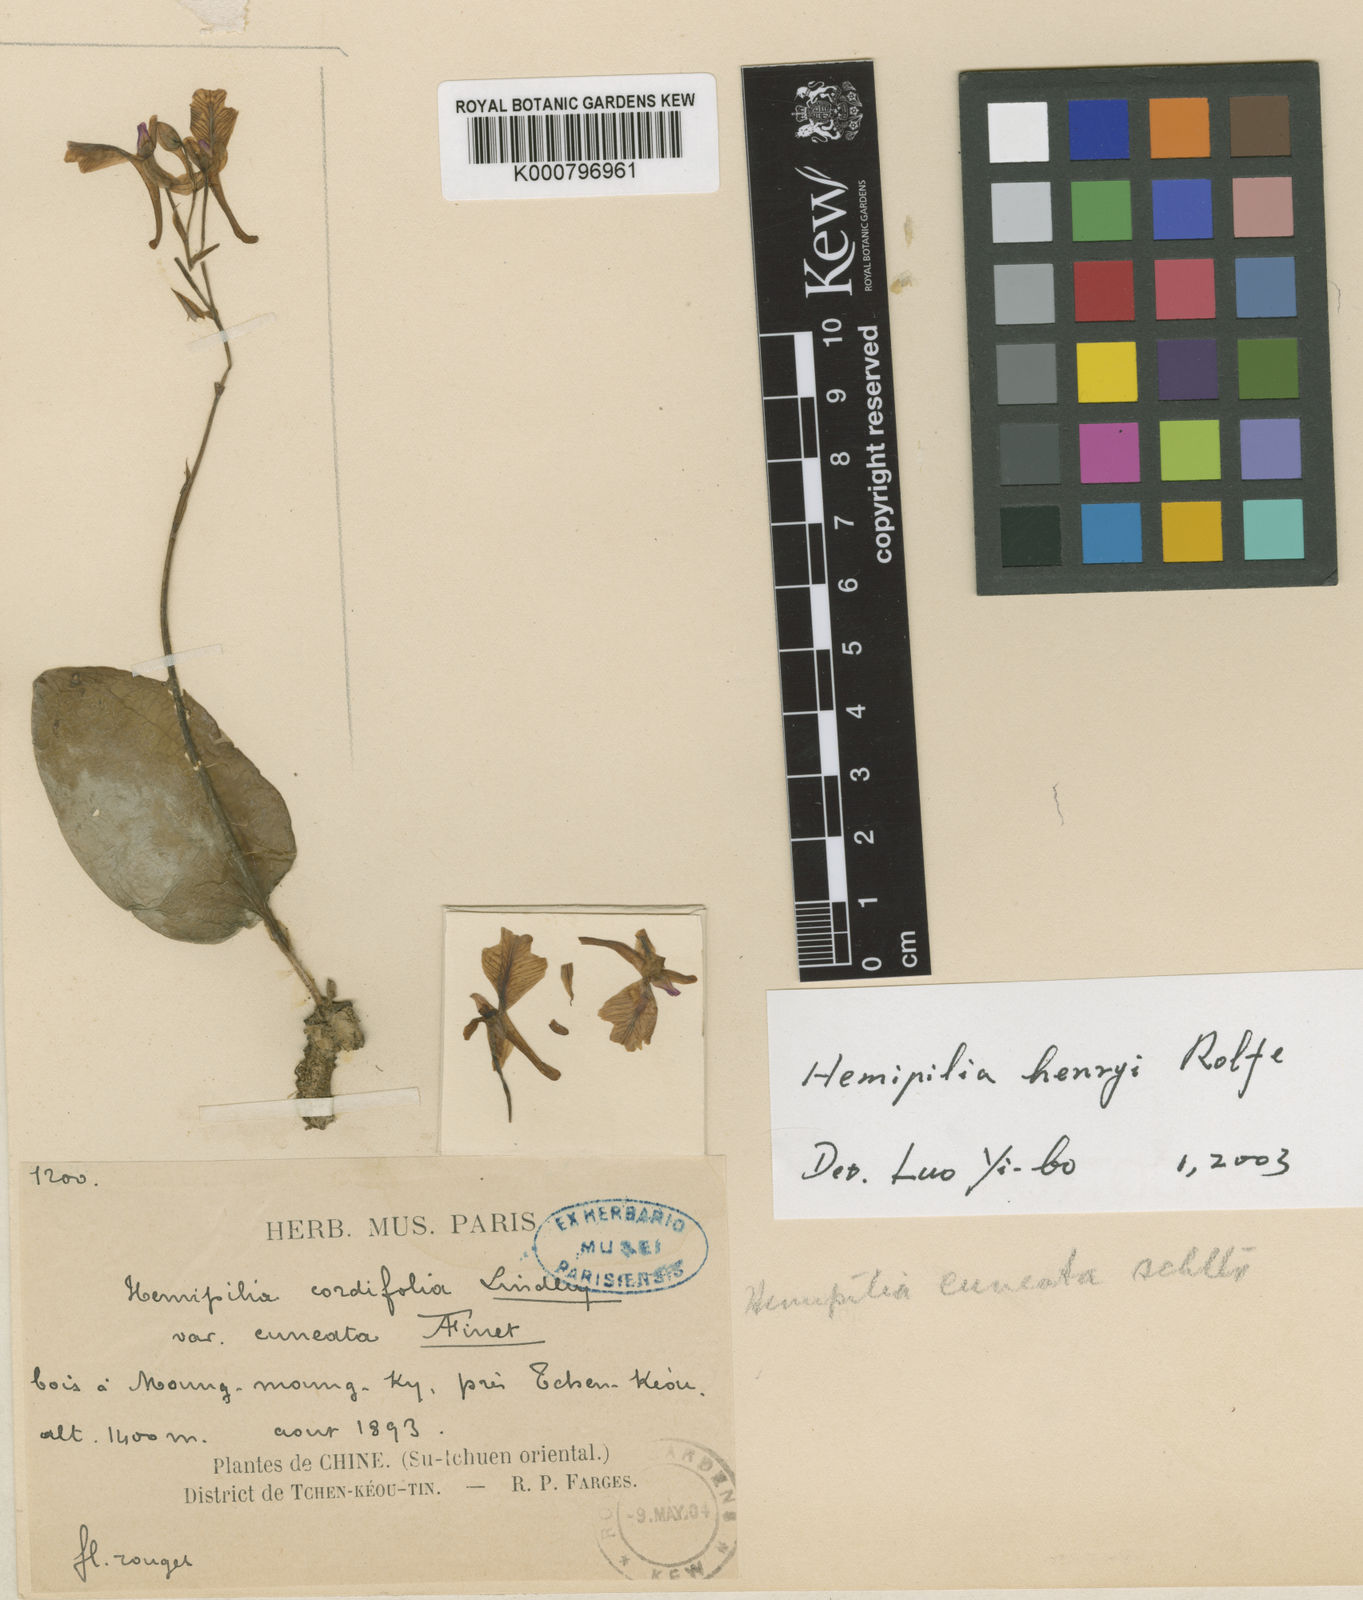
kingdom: Plantae
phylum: Tracheophyta
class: Liliopsida
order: Asparagales
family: Orchidaceae
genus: Hemipilia
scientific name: Hemipilia
